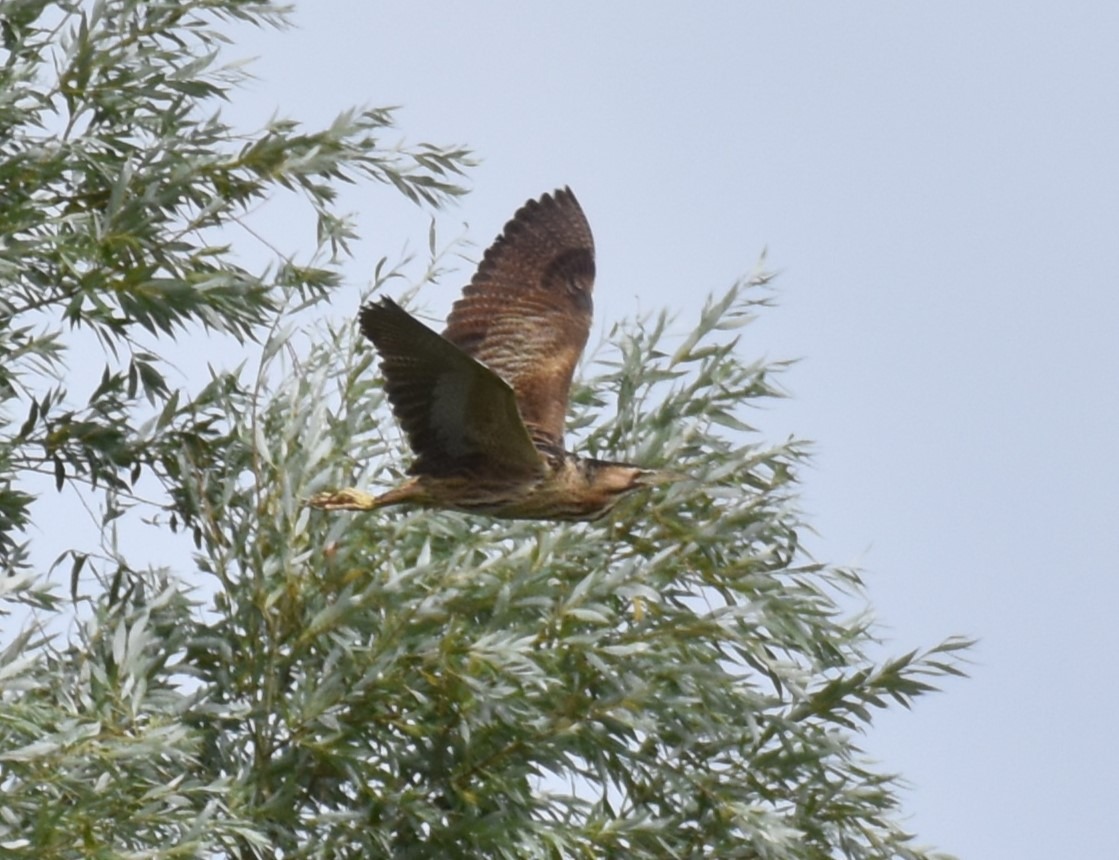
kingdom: Animalia
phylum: Chordata
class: Aves
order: Pelecaniformes
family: Ardeidae
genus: Botaurus
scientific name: Botaurus stellaris
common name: Rørdrum
